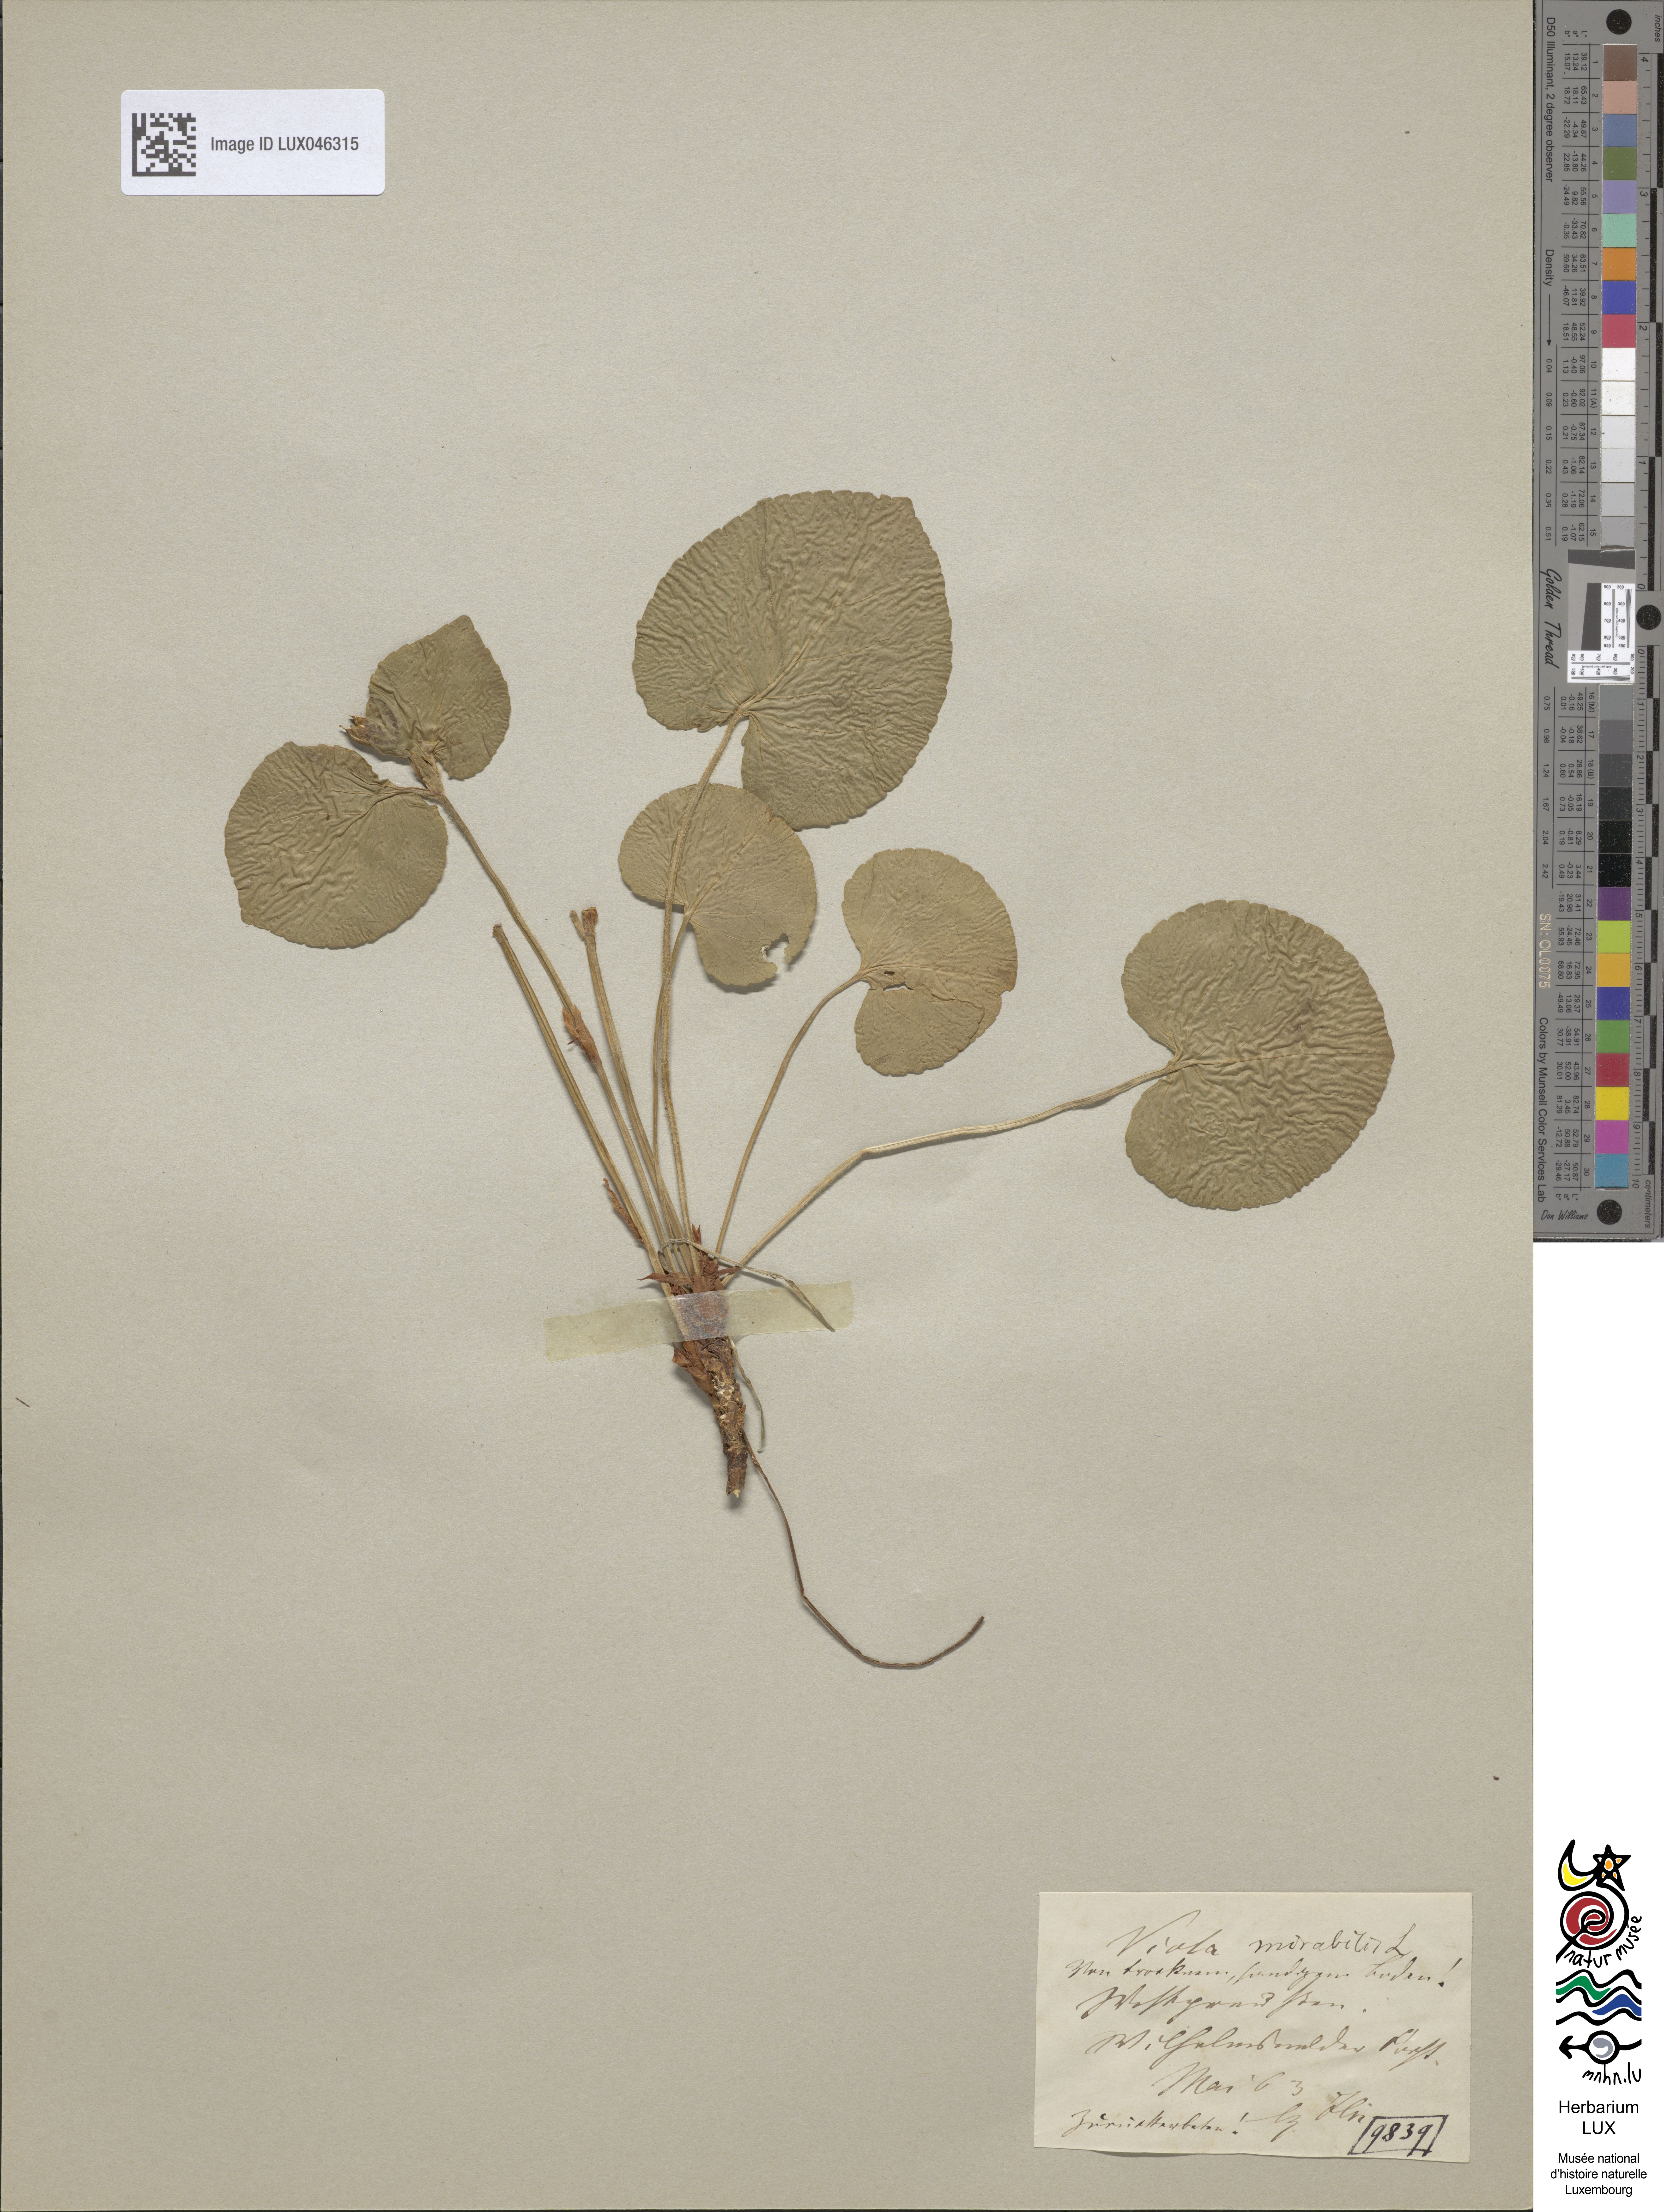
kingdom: Plantae
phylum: Tracheophyta
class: Magnoliopsida
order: Malpighiales
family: Violaceae
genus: Viola
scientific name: Viola mirabilis
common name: Wonder violet
